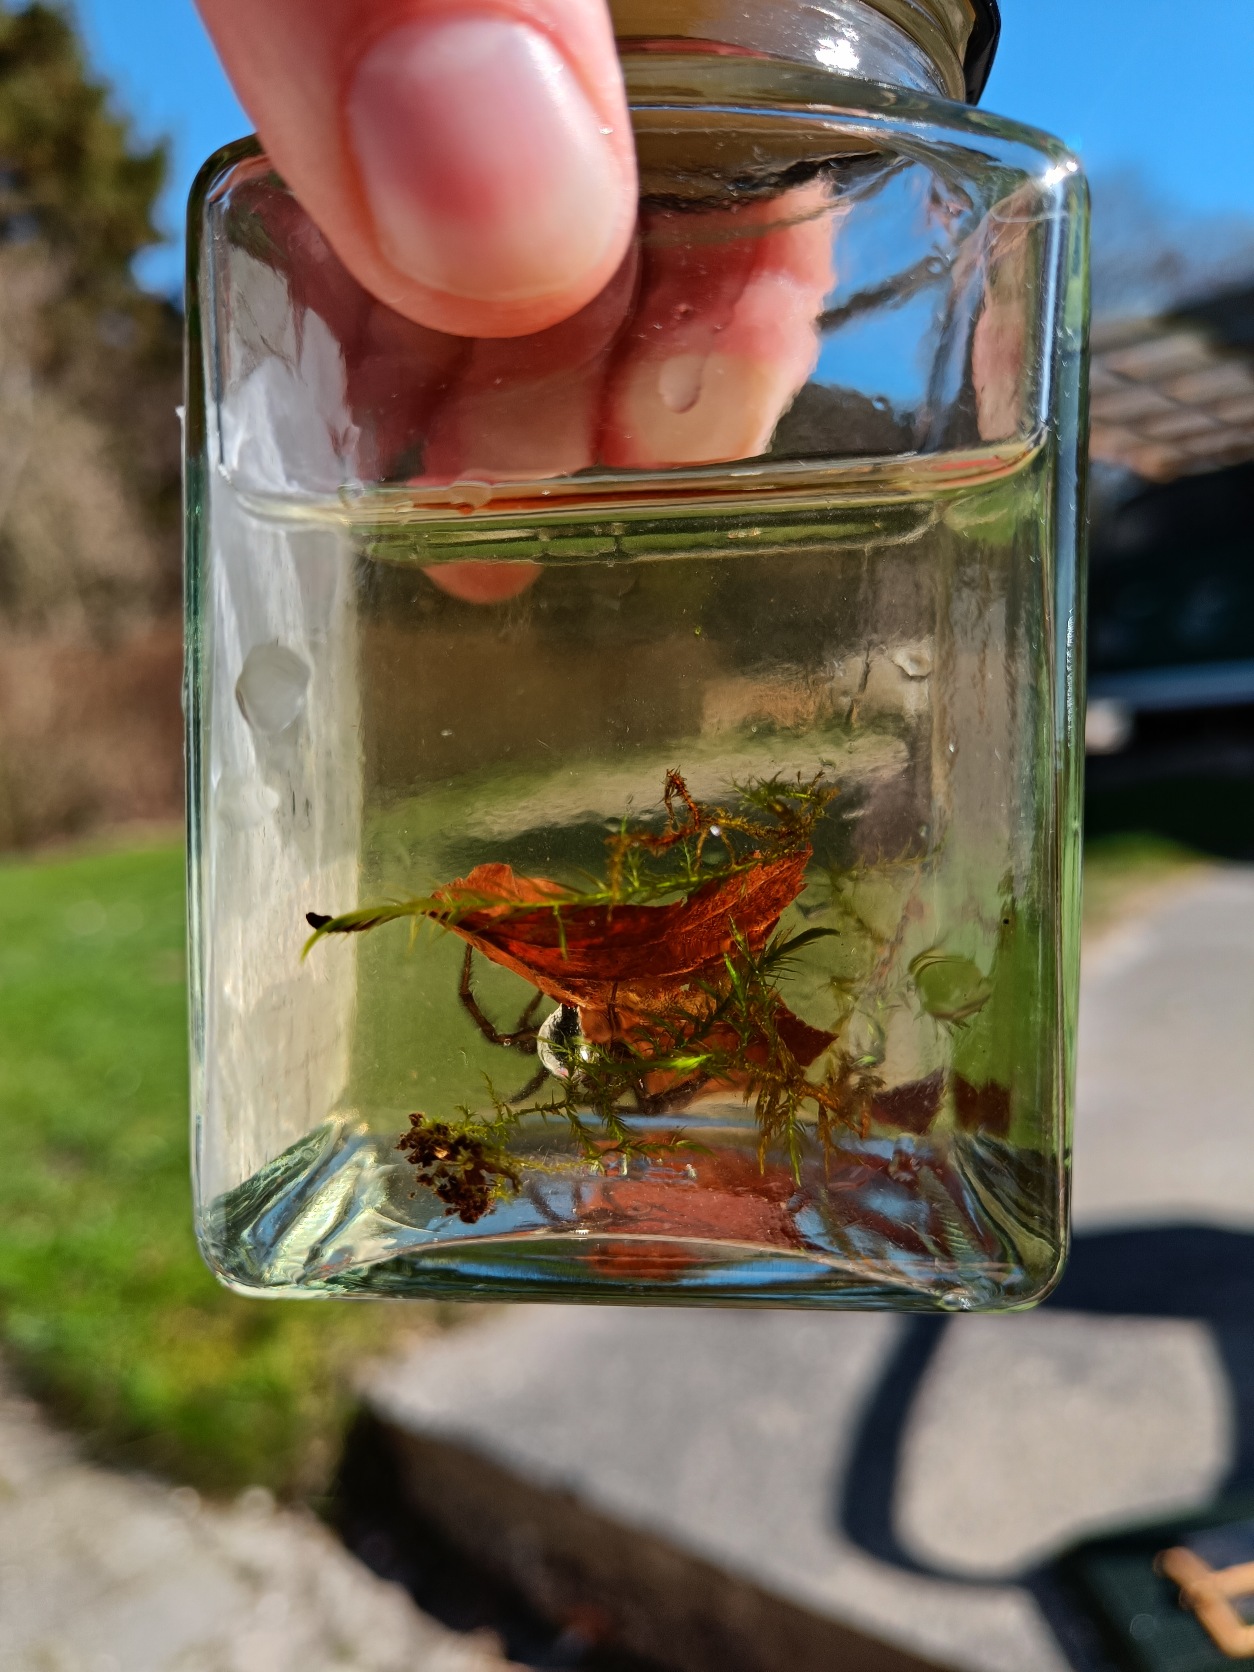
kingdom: Animalia
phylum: Arthropoda
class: Arachnida
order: Araneae
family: Dictynidae
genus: Argyroneta
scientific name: Argyroneta aquatica
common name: Vandedderkop
